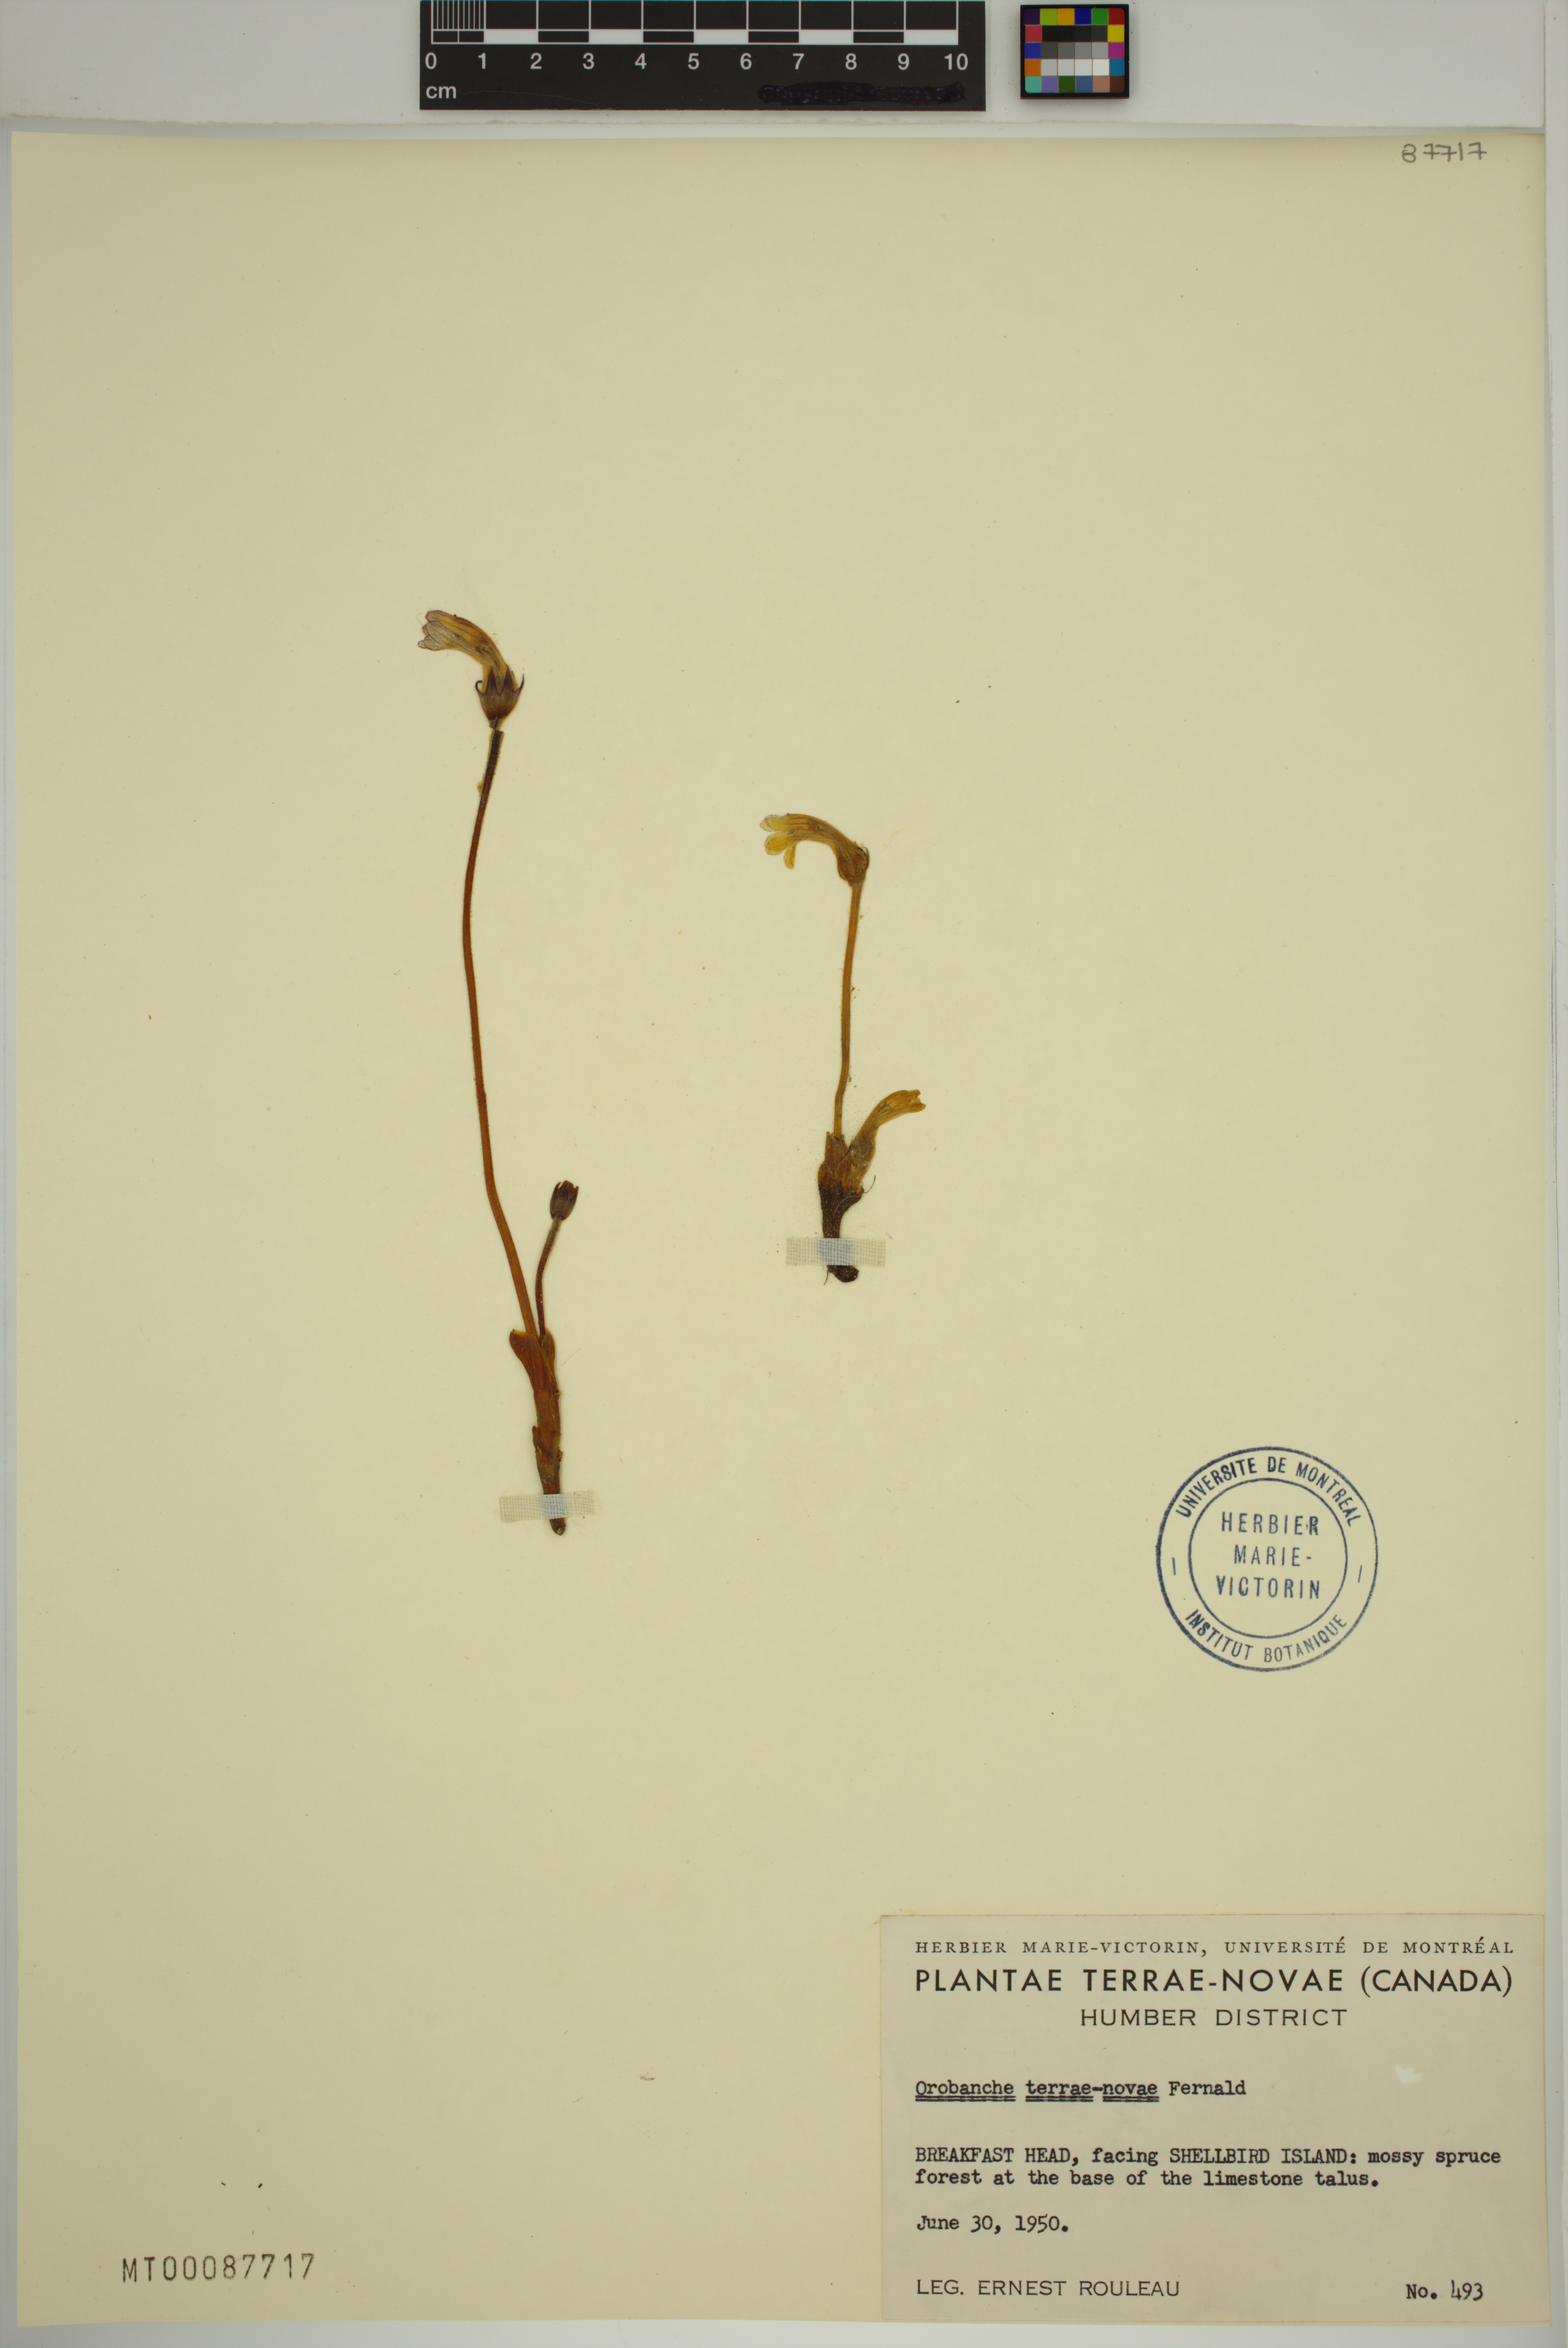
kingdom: Plantae
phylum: Tracheophyta
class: Magnoliopsida
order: Lamiales
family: Orobanchaceae
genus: Aphyllon
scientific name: Aphyllon uniflorum
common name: One-flowered broomrape
